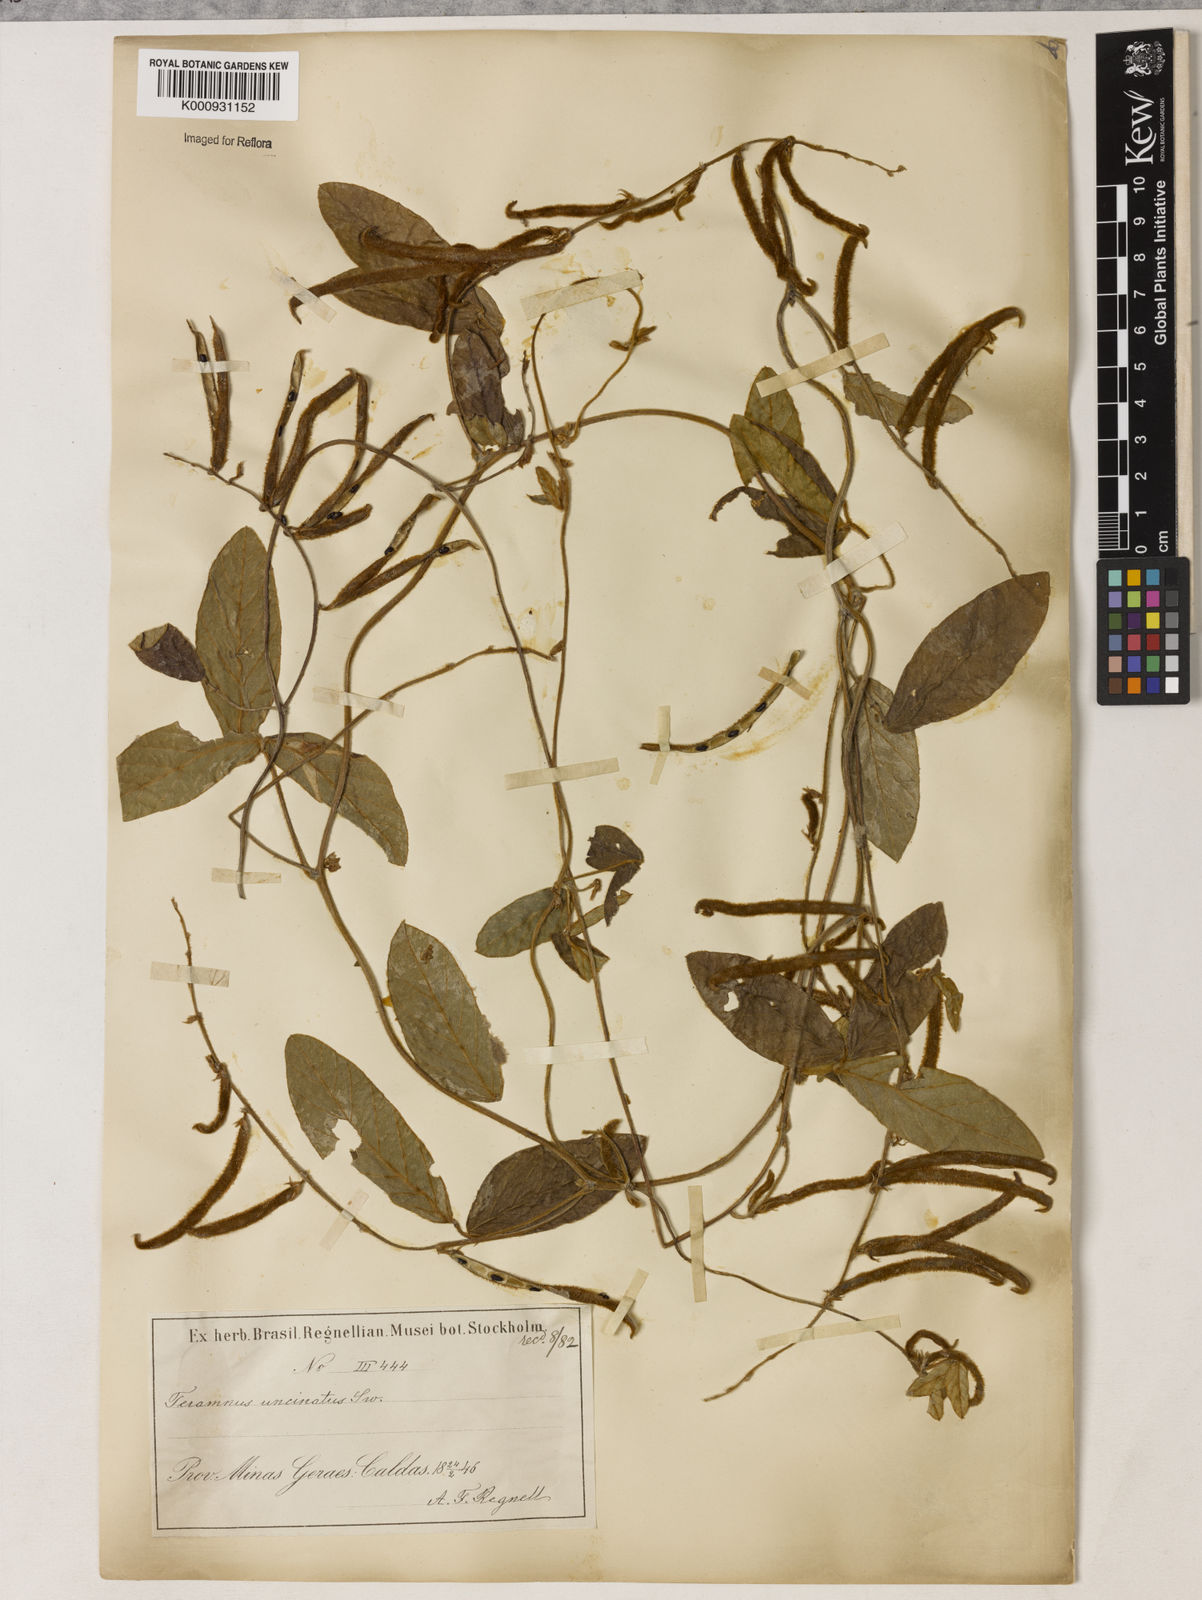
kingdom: Plantae
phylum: Tracheophyta
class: Magnoliopsida
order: Fabales
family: Fabaceae
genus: Teramnus
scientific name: Teramnus uncinatus
